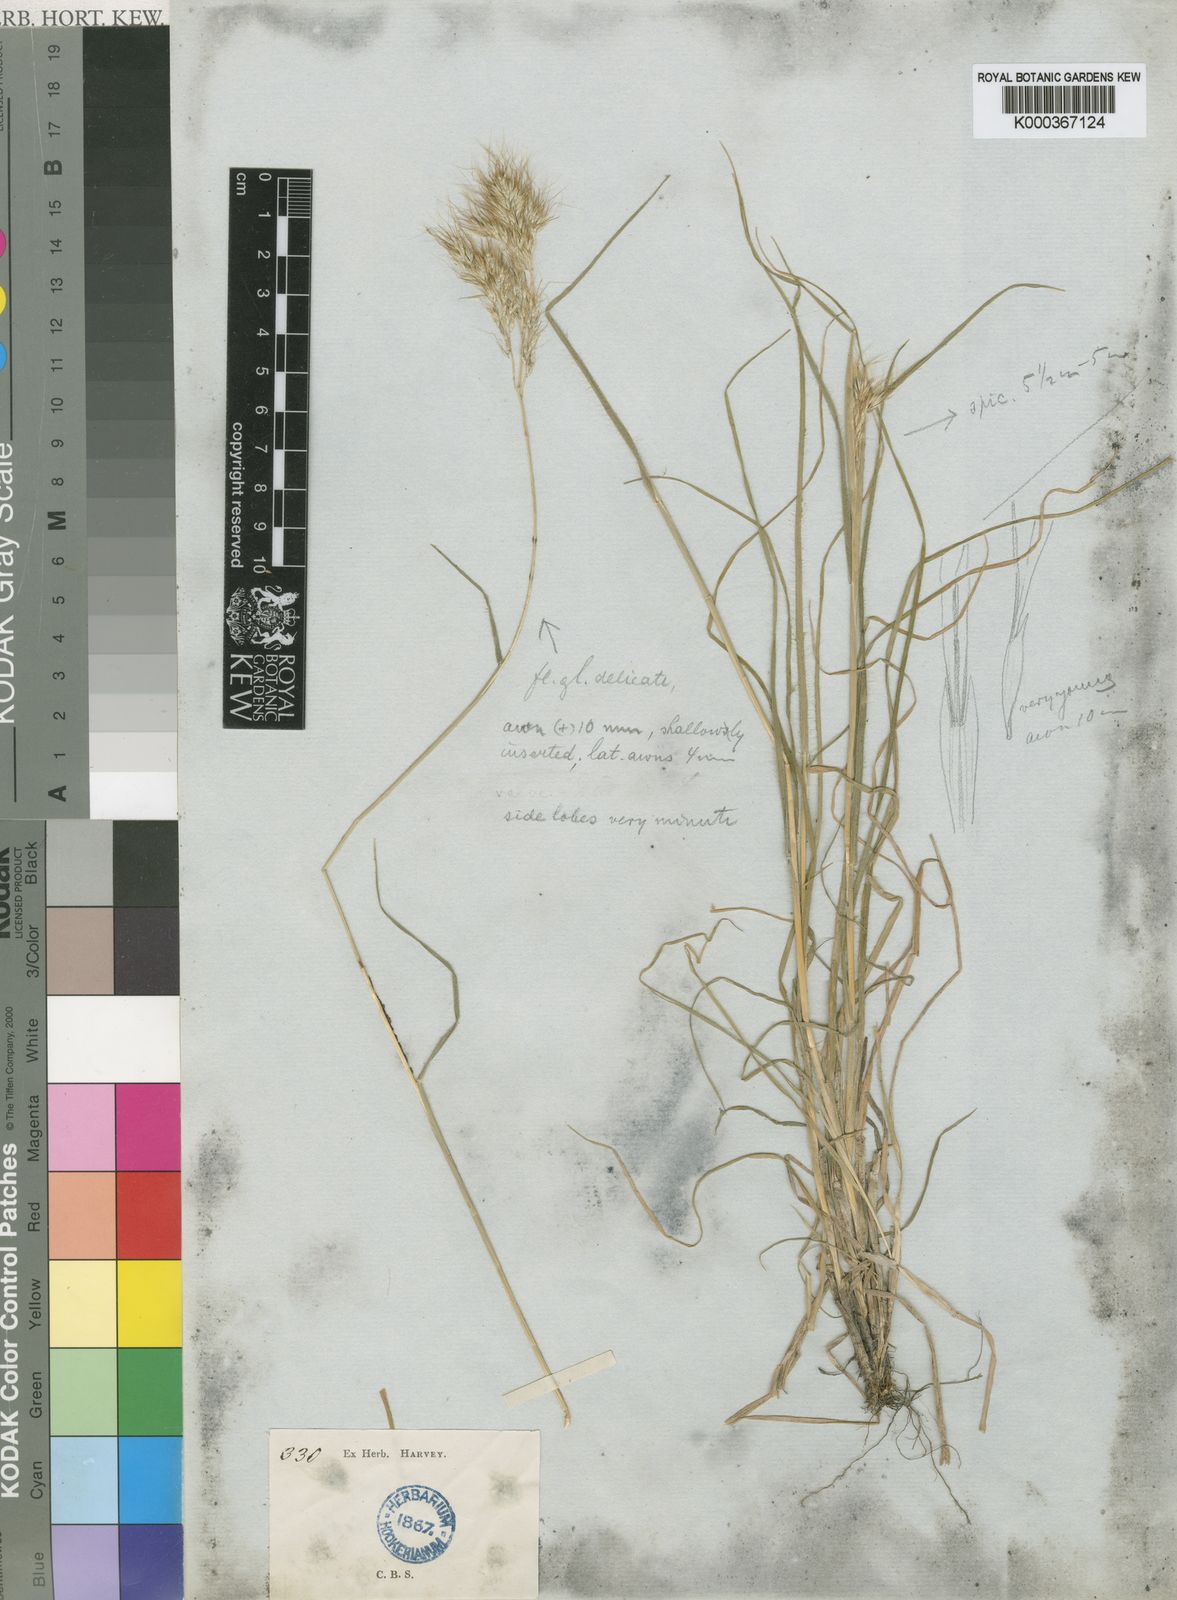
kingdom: Plantae
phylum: Tracheophyta
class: Liliopsida
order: Poales
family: Poaceae
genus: Pentameris
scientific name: Pentameris triseta
